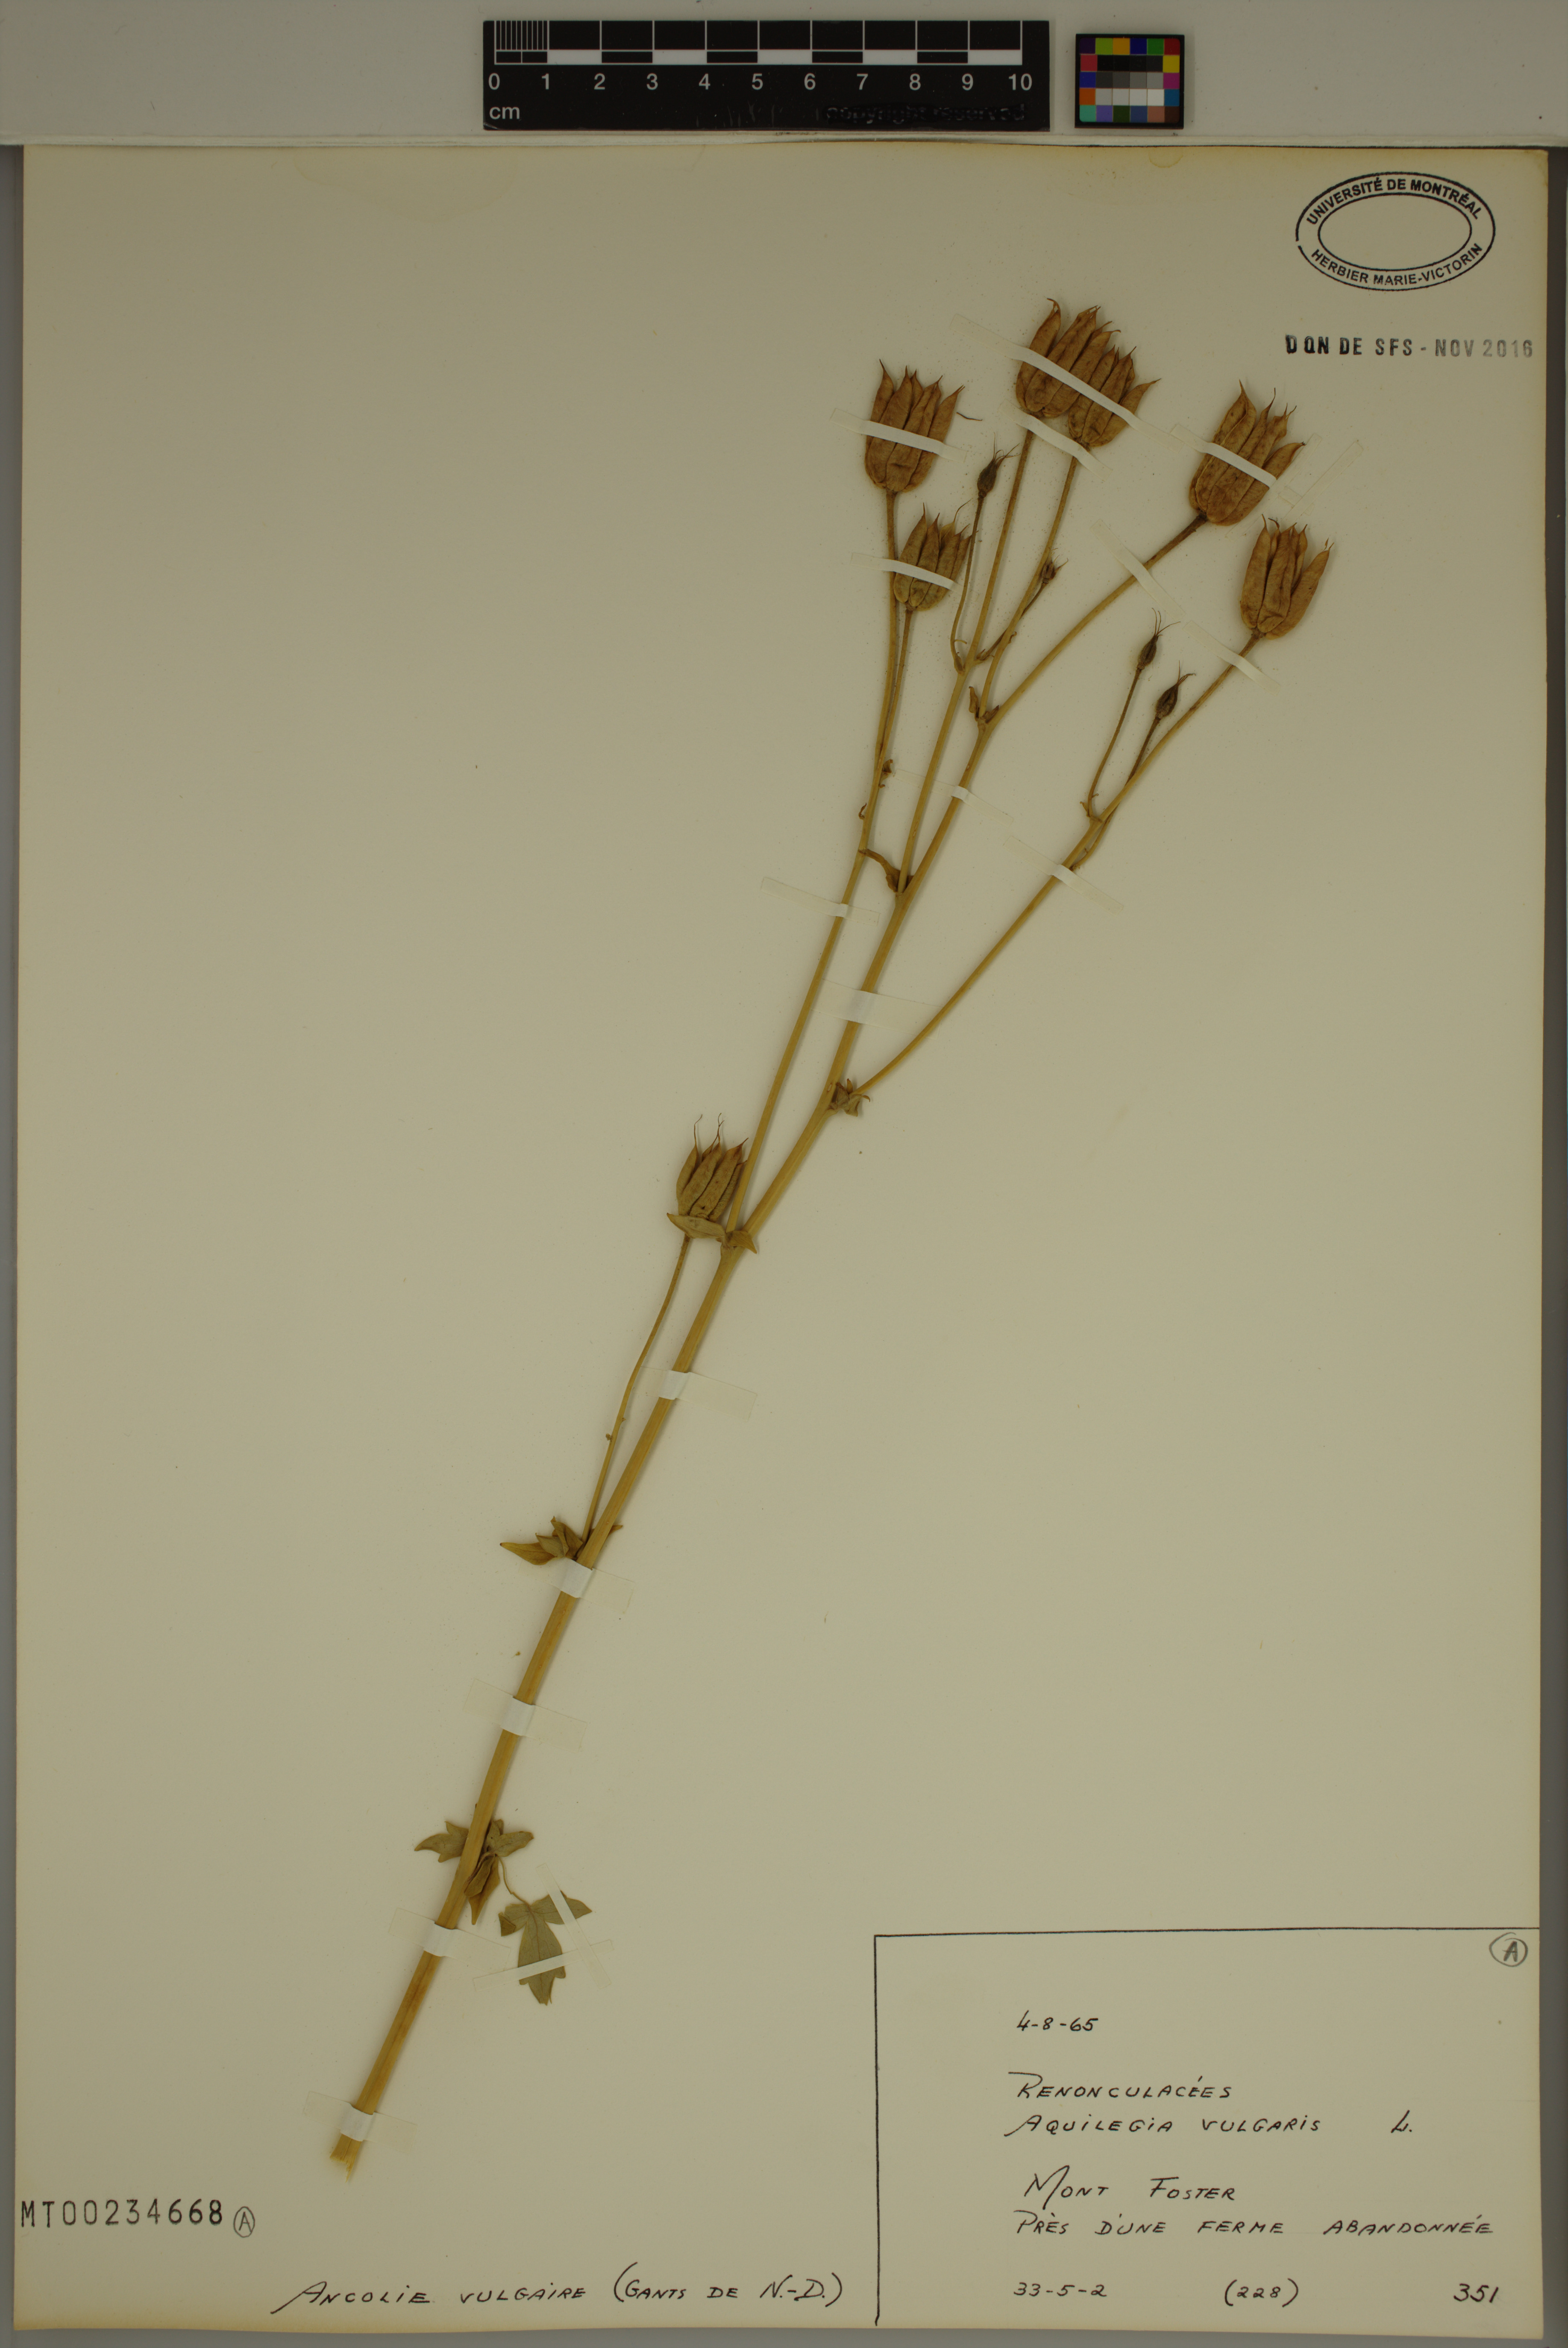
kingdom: Plantae
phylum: Tracheophyta
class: Magnoliopsida
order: Ranunculales
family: Ranunculaceae
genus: Aquilegia
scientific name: Aquilegia vulgaris
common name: Columbine
